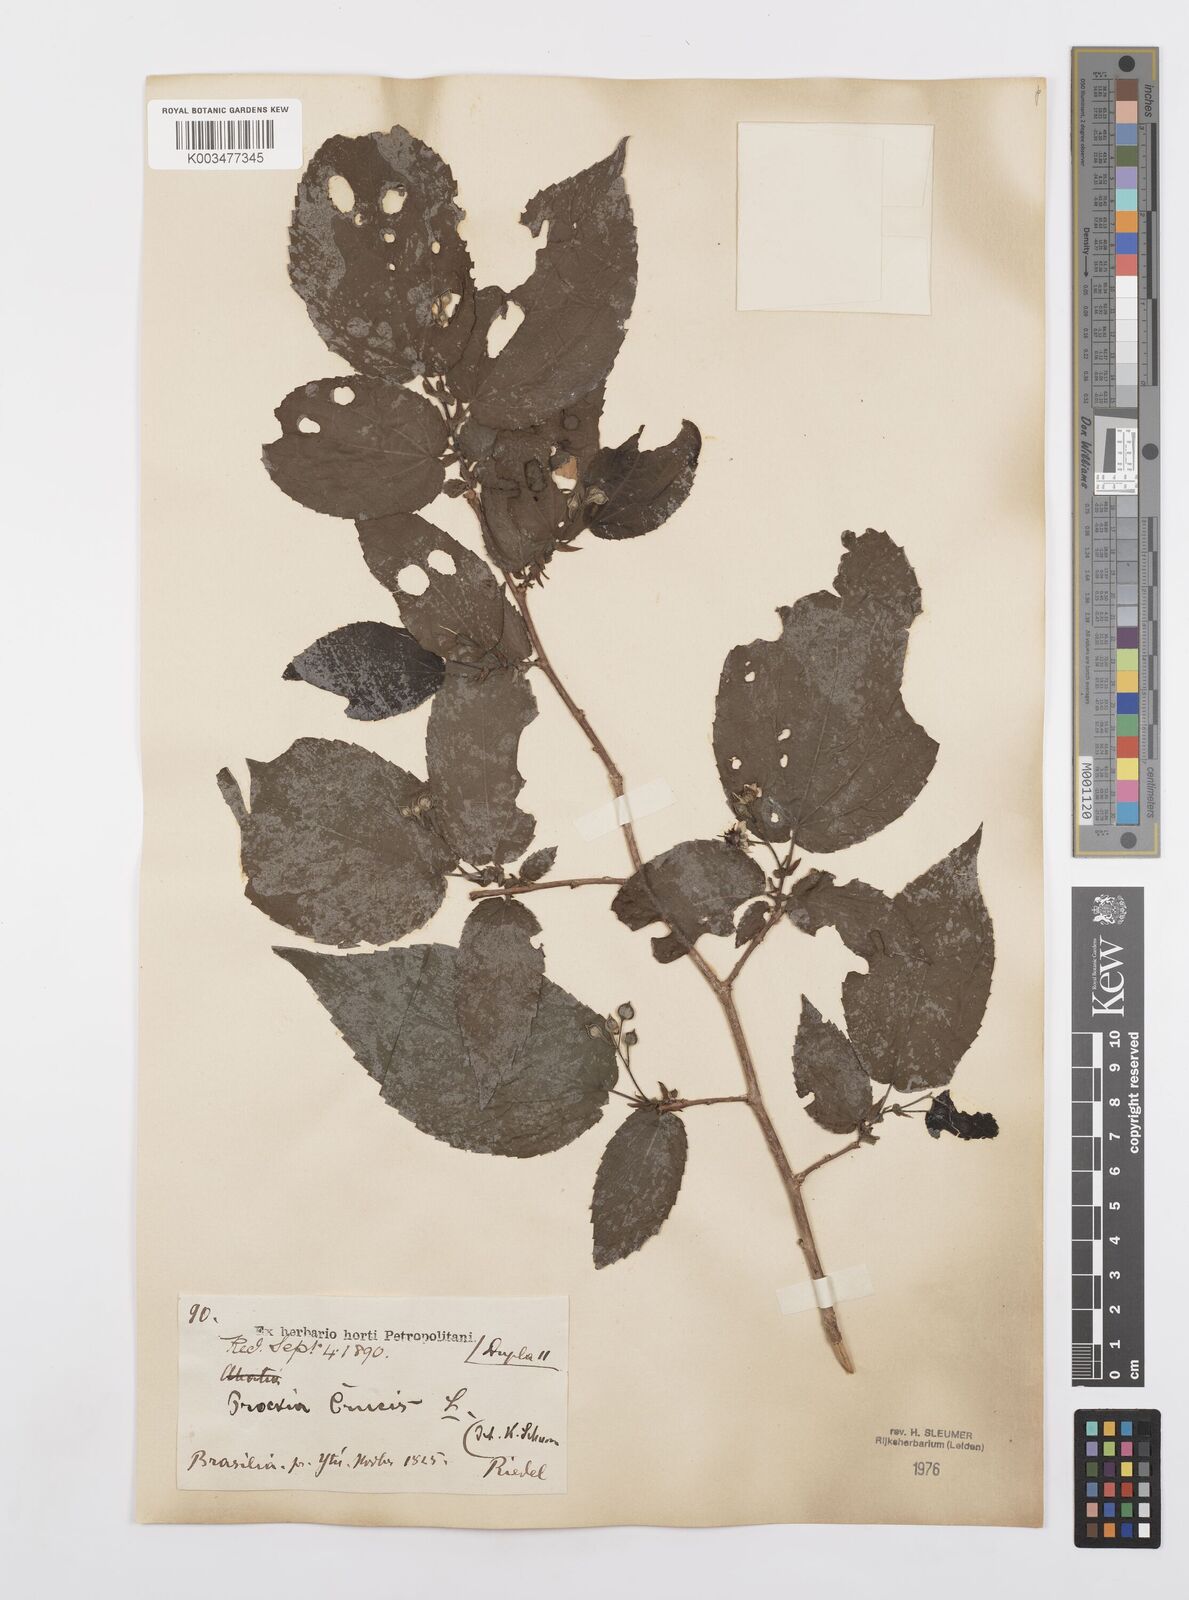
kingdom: Plantae
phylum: Tracheophyta
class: Magnoliopsida
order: Malpighiales
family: Salicaceae
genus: Prockia
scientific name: Prockia crucis
